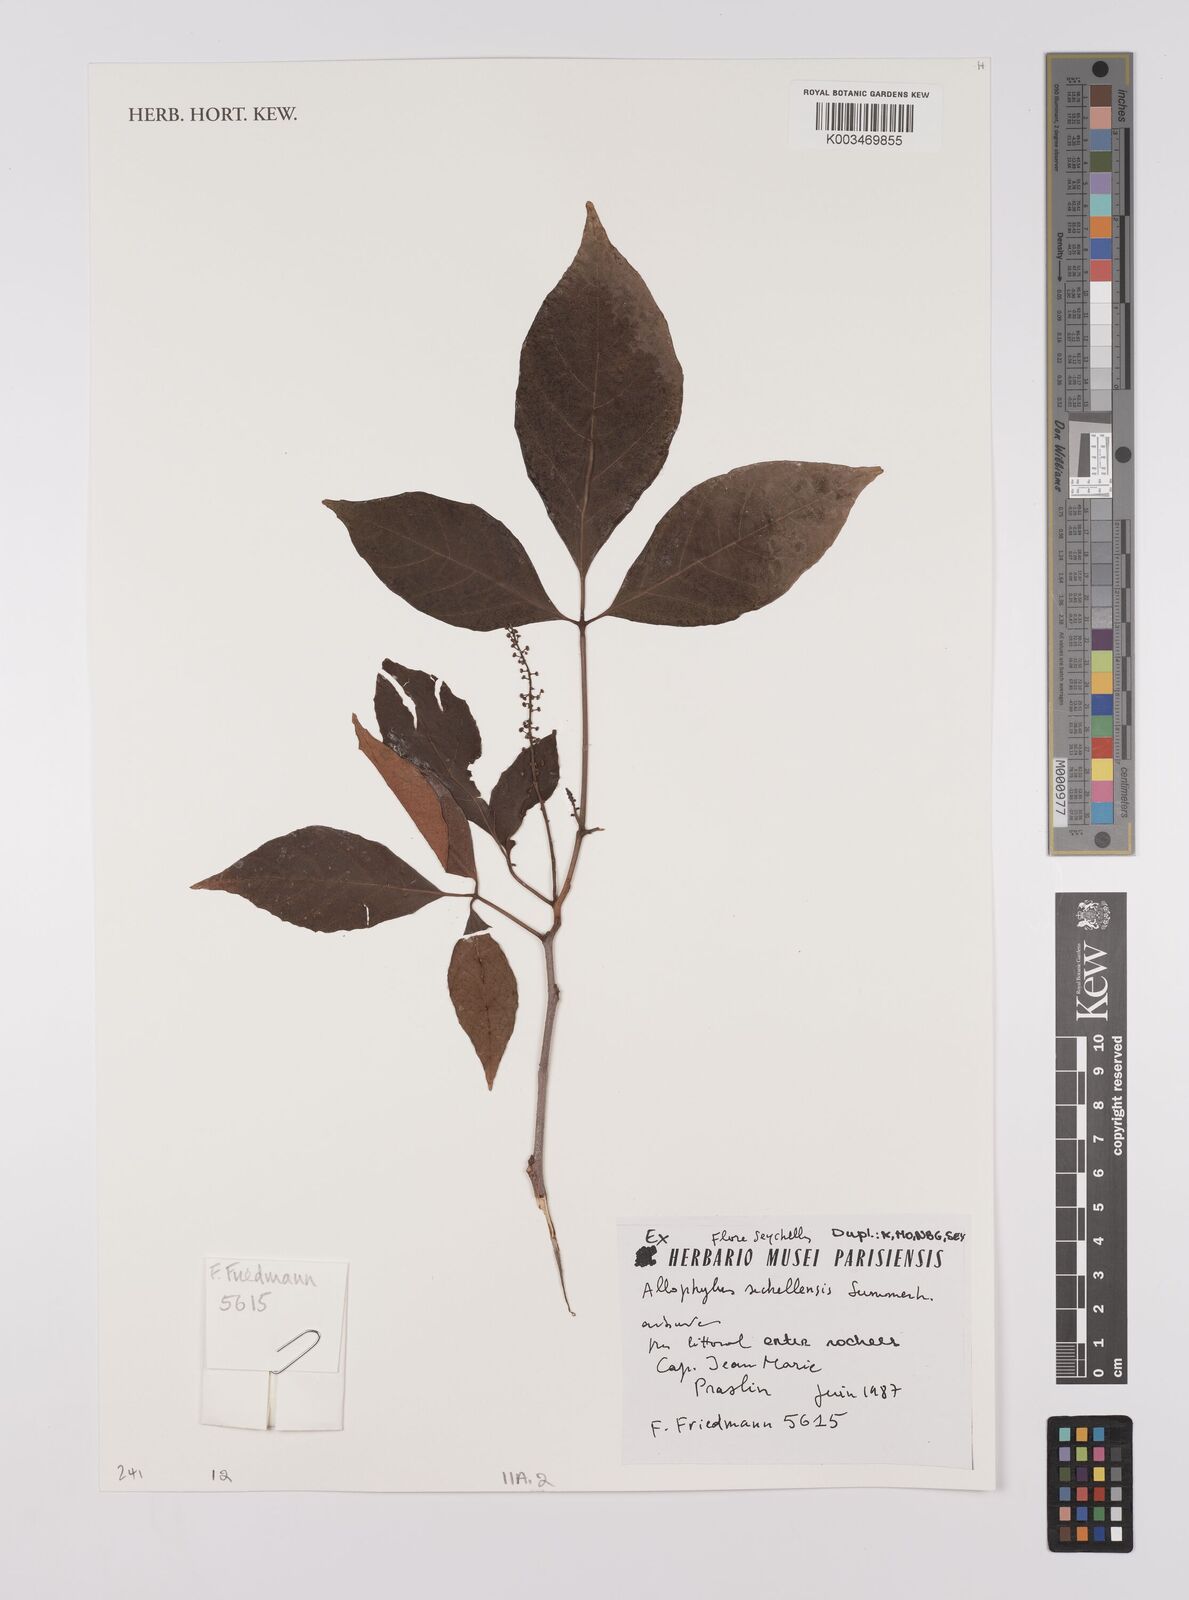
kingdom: Plantae
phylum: Tracheophyta
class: Magnoliopsida
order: Sapindales
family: Sapindaceae
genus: Allophylus
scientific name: Allophylus sechellensis
